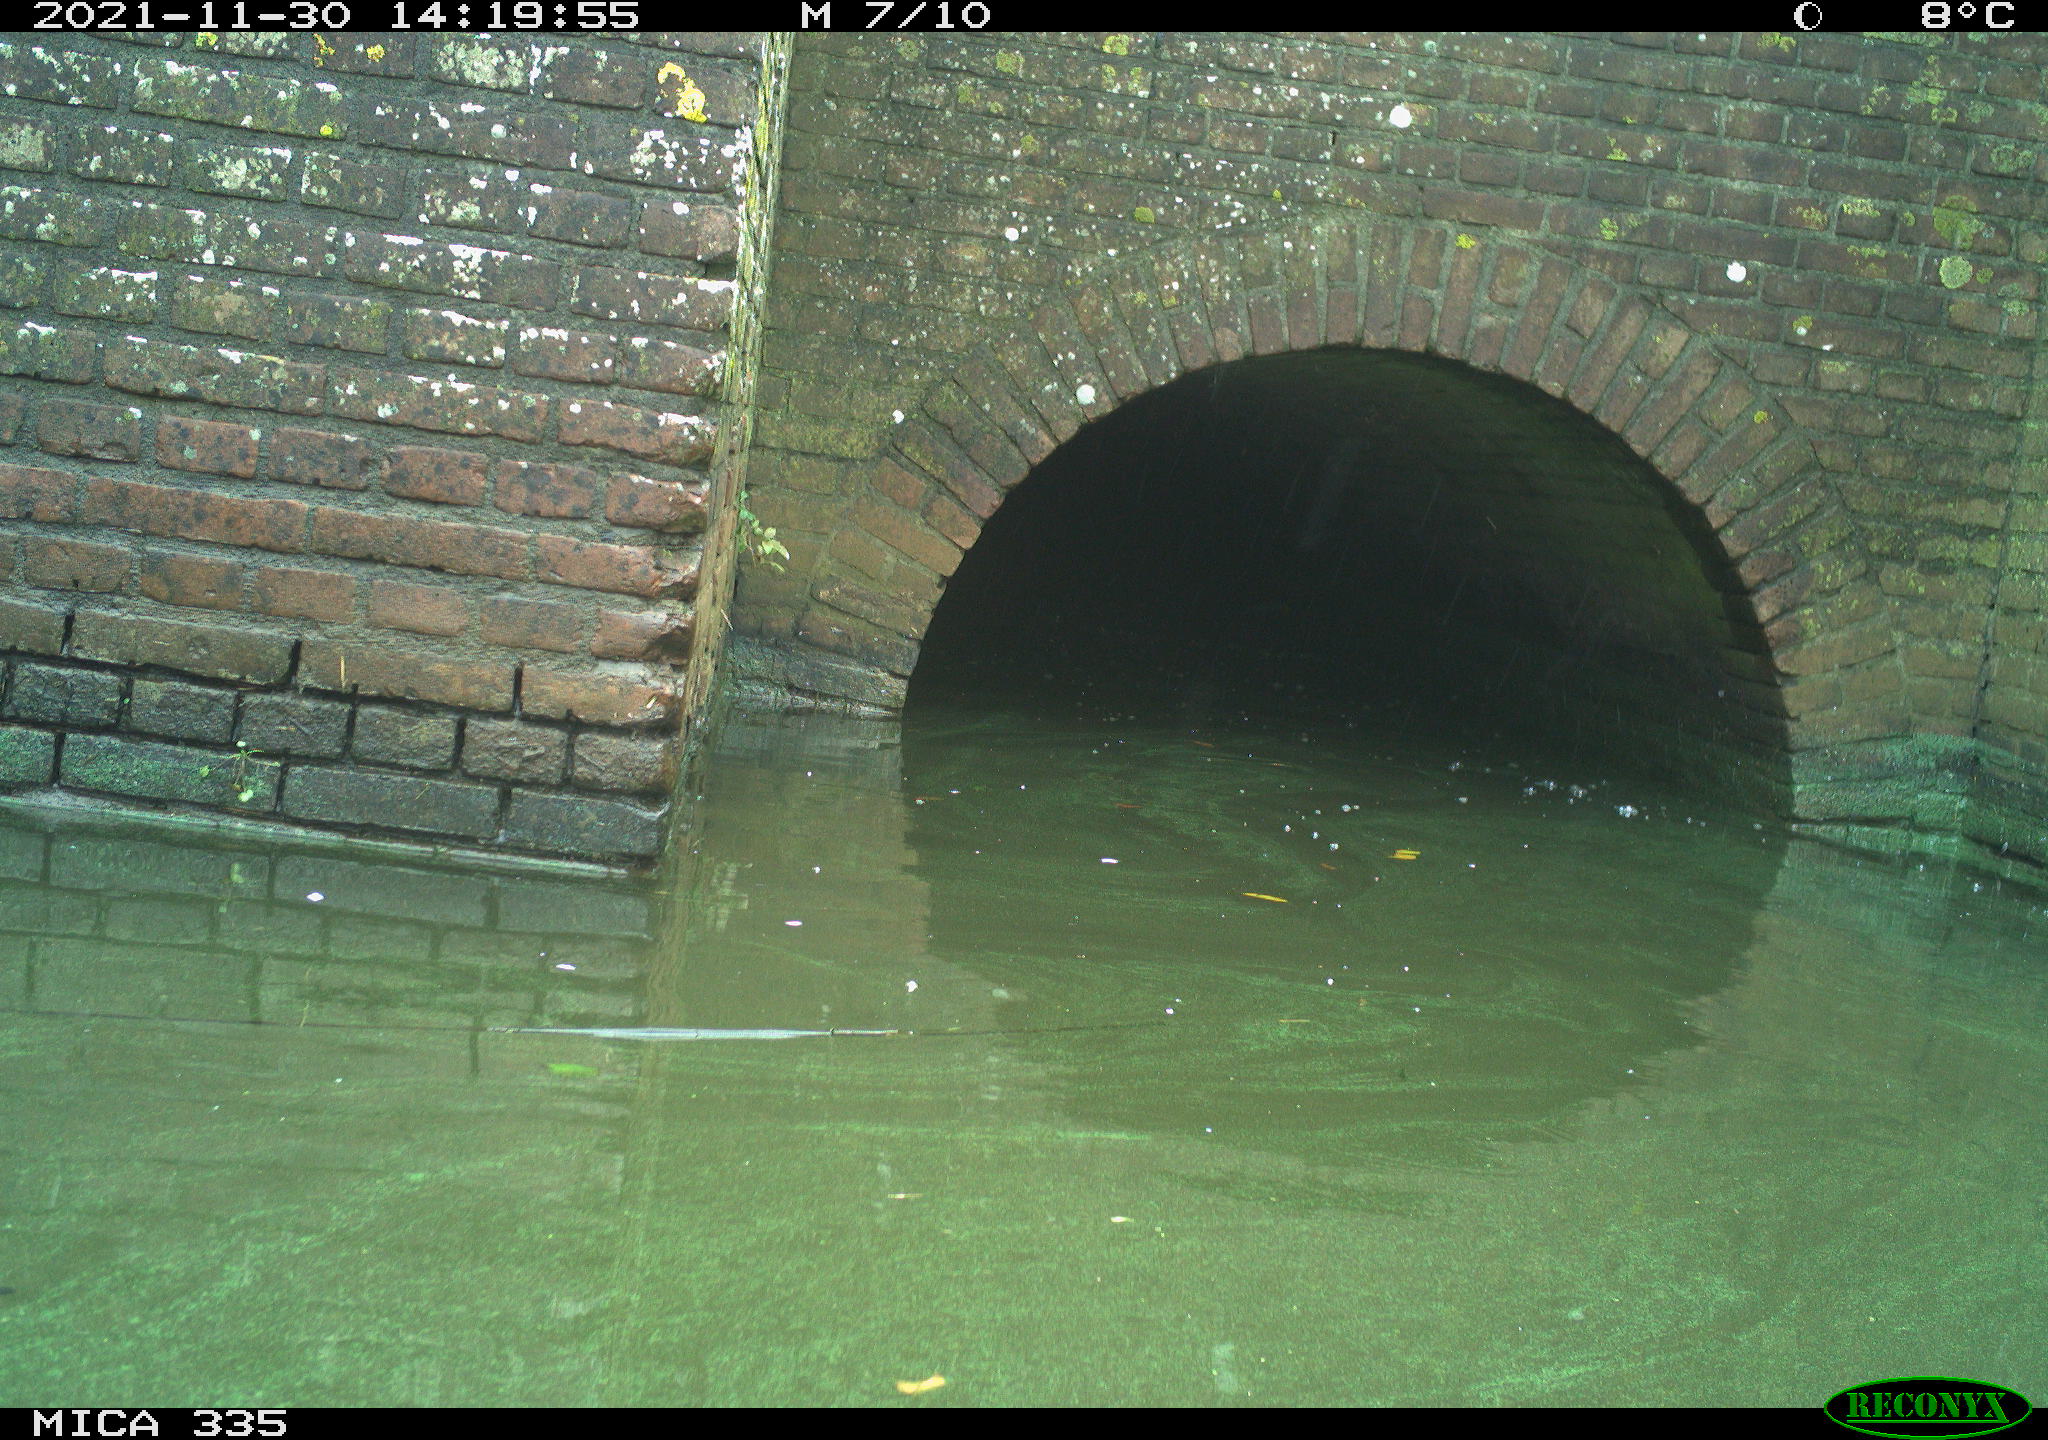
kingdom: Animalia
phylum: Chordata
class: Aves
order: Anseriformes
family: Anatidae
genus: Anas
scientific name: Anas platyrhynchos
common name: Mallard
